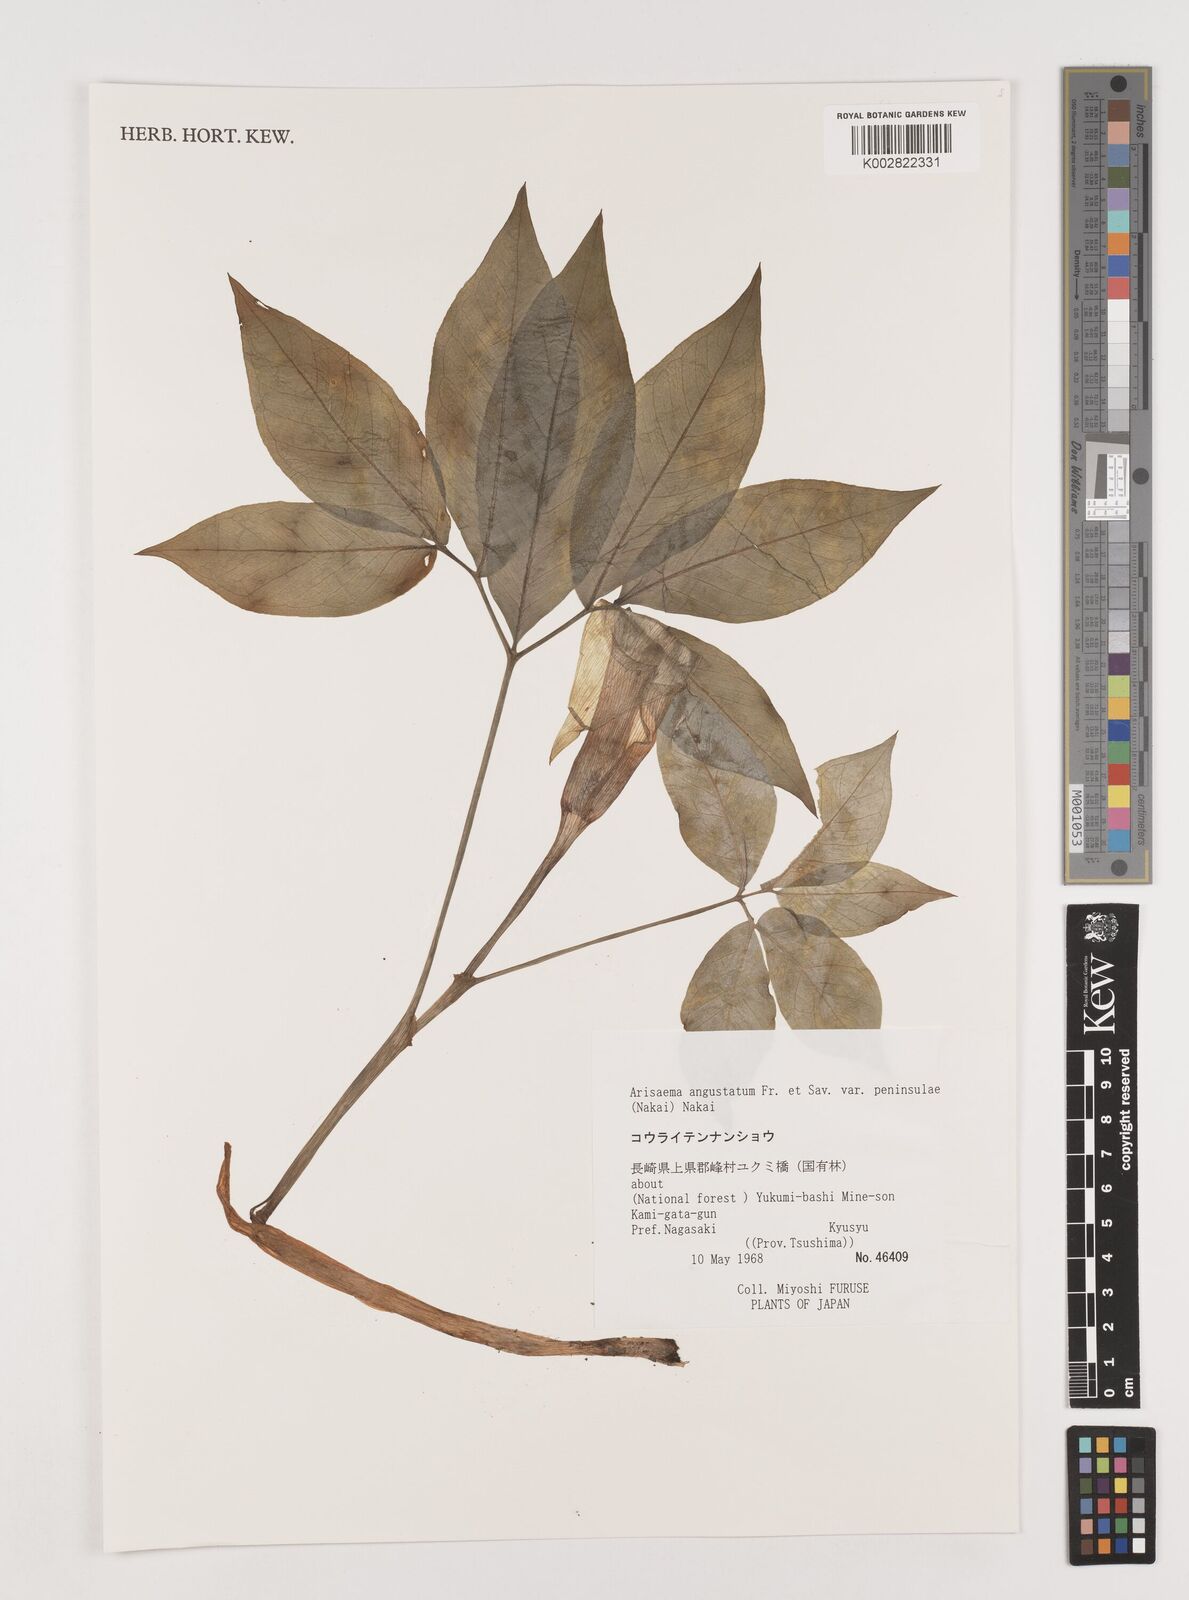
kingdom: Plantae
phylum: Tracheophyta
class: Liliopsida
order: Alismatales
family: Araceae
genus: Arisaema
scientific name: Arisaema angustatum
